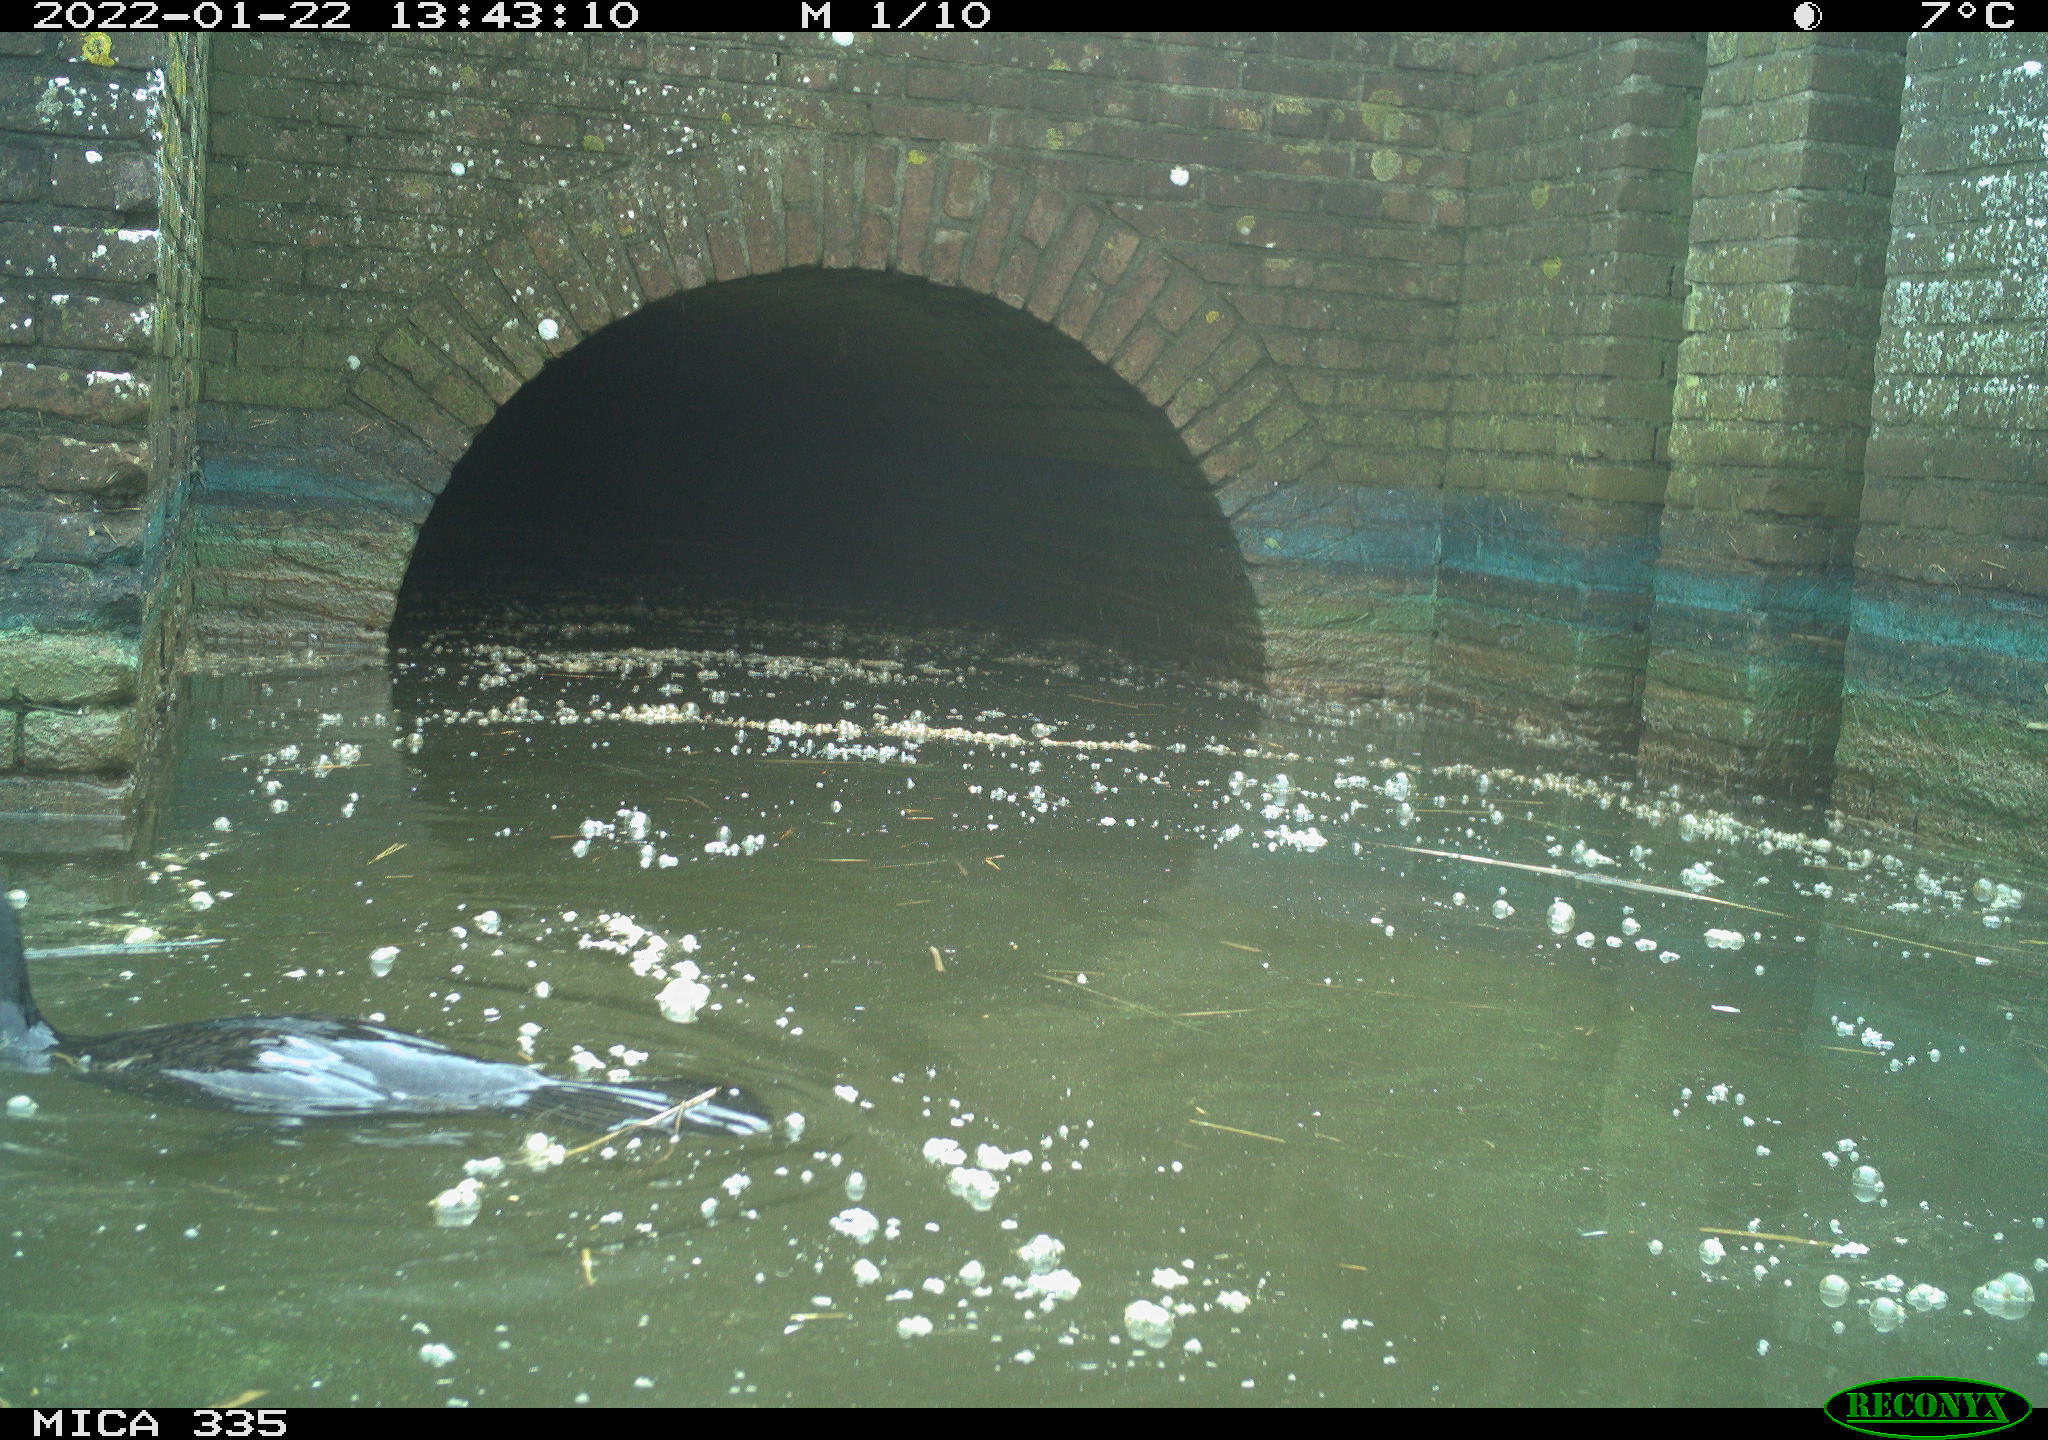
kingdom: Animalia
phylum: Chordata
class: Aves
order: Suliformes
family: Phalacrocoracidae
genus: Phalacrocorax
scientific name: Phalacrocorax carbo
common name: Great cormorant
